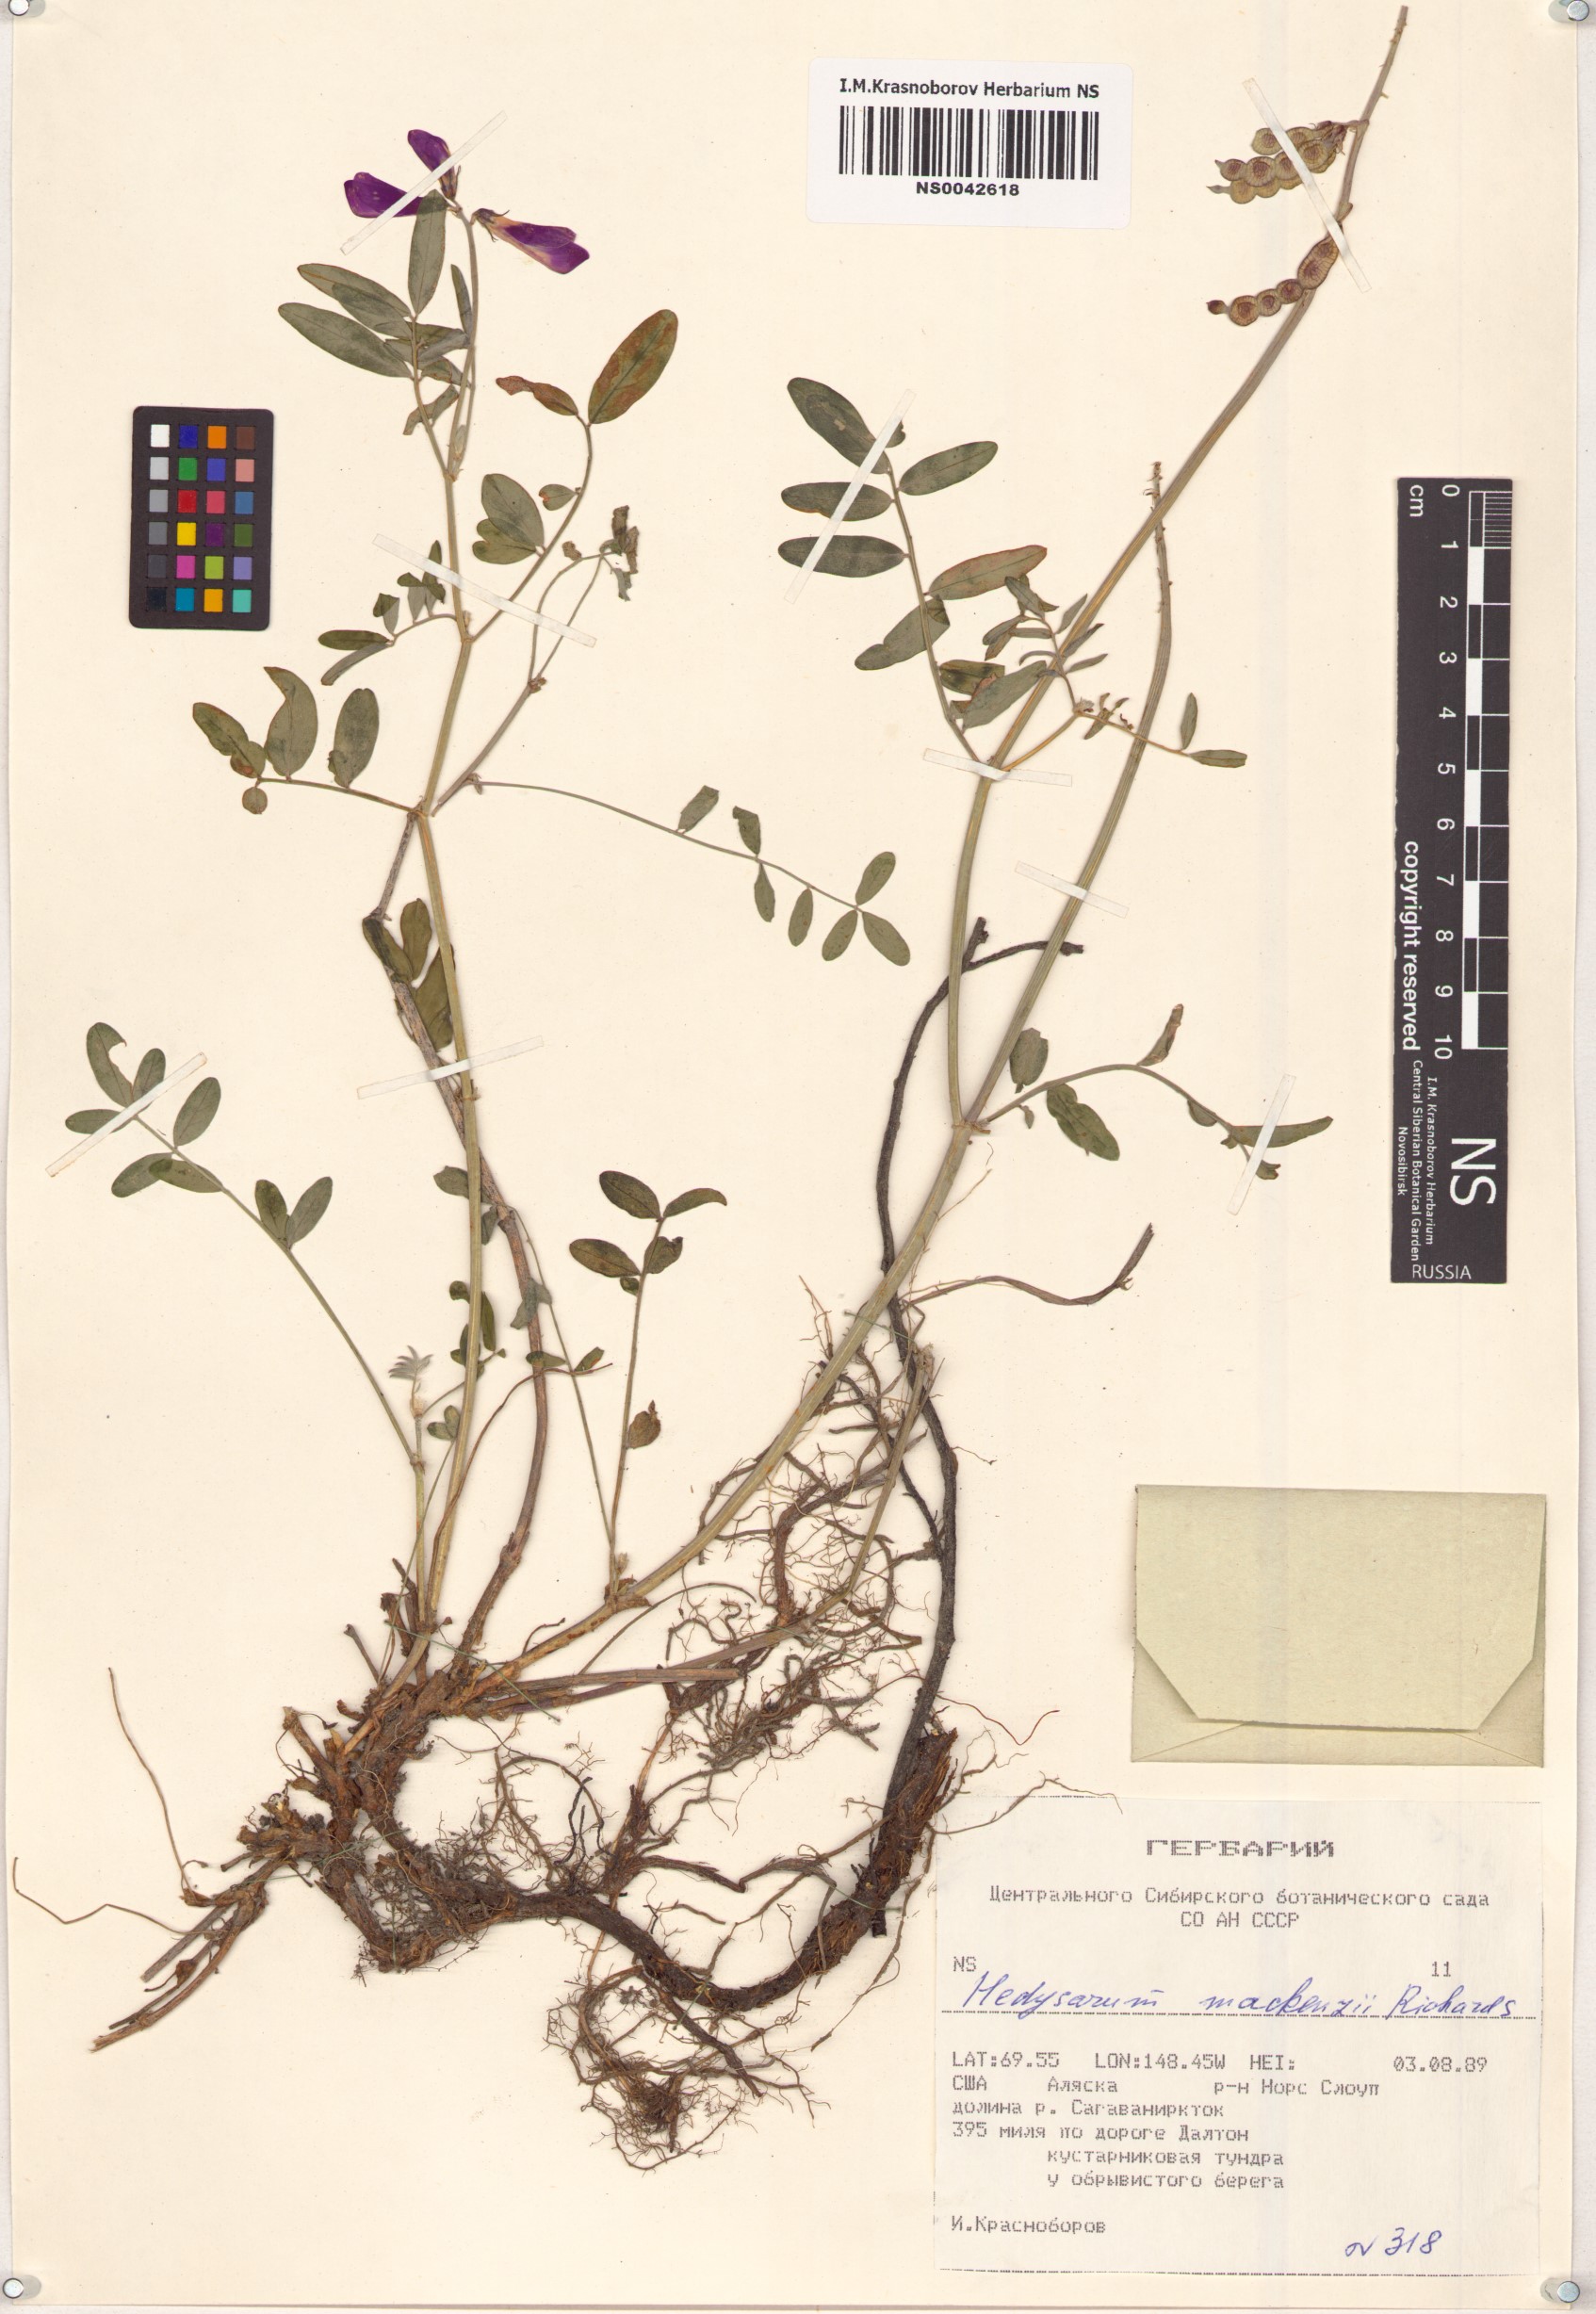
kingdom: Plantae
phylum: Tracheophyta
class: Magnoliopsida
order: Fabales
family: Fabaceae
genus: Hedysarum
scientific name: Hedysarum boreale
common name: Northern sweet-vetch
